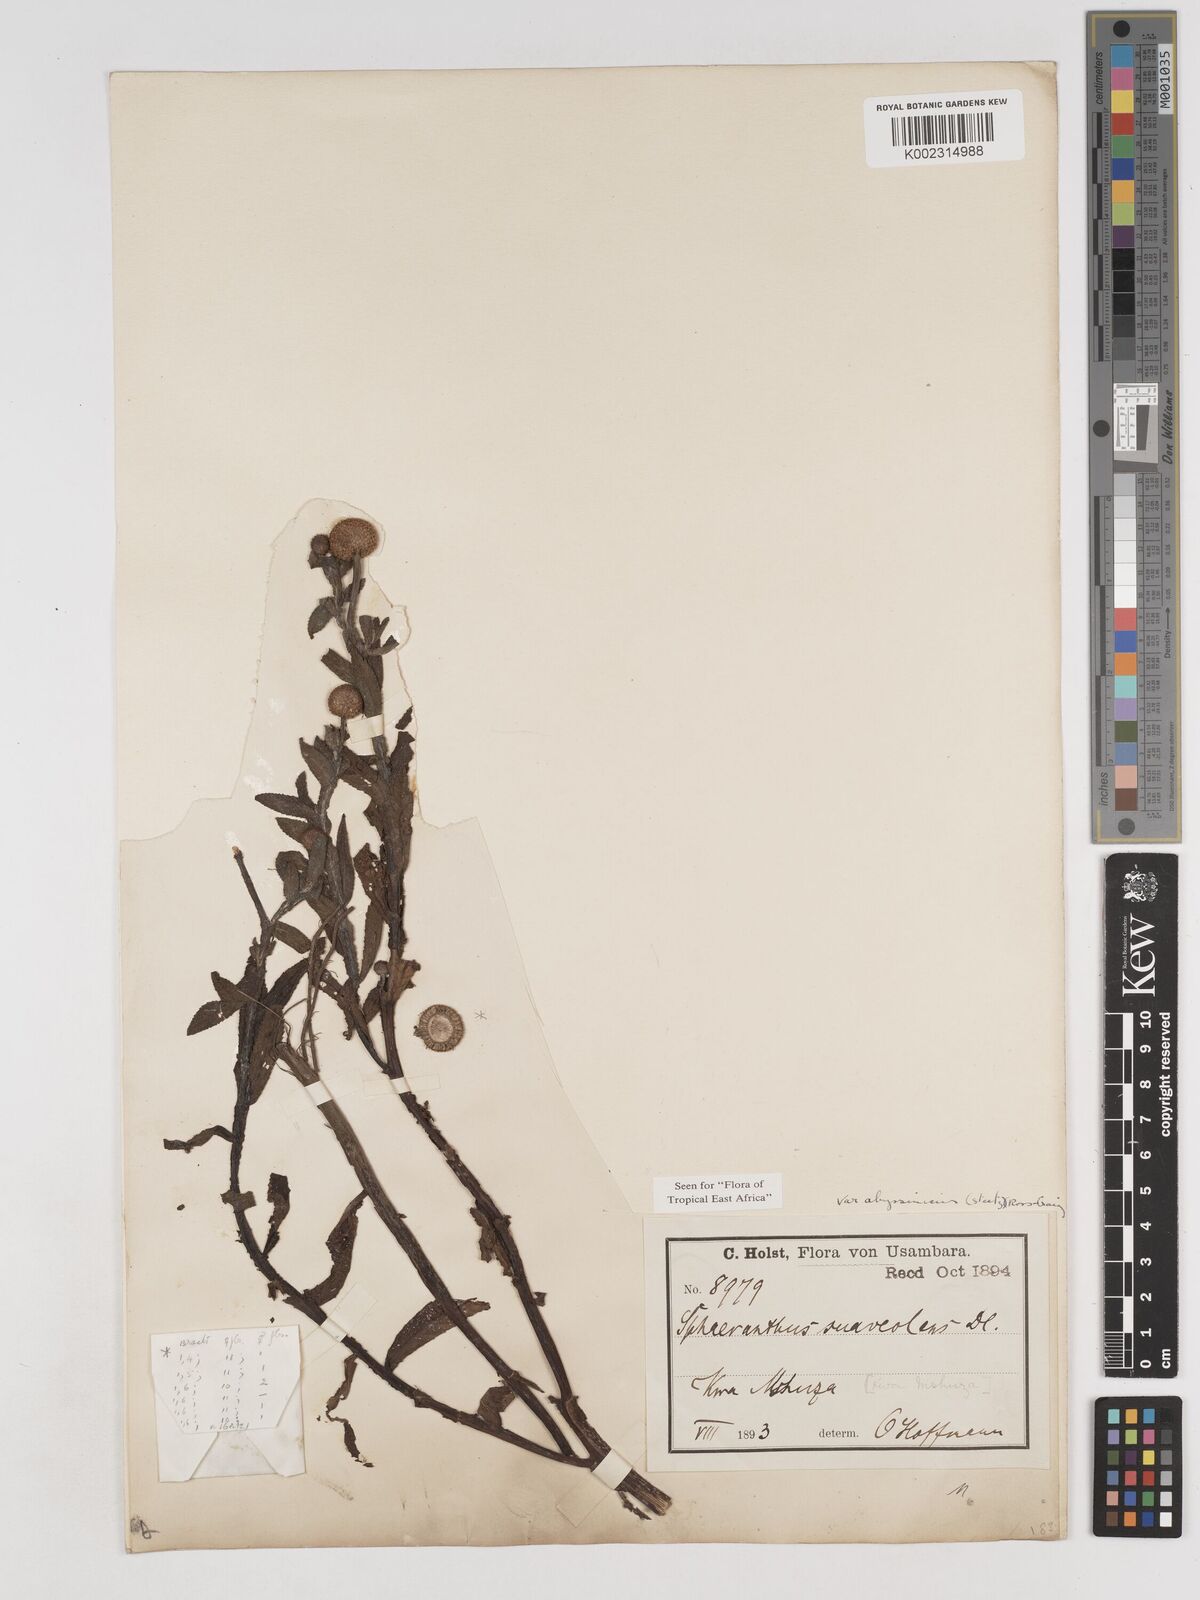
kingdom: Plantae
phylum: Tracheophyta
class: Magnoliopsida
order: Asterales
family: Asteraceae
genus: Sphaeranthus
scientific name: Sphaeranthus suaveolens
